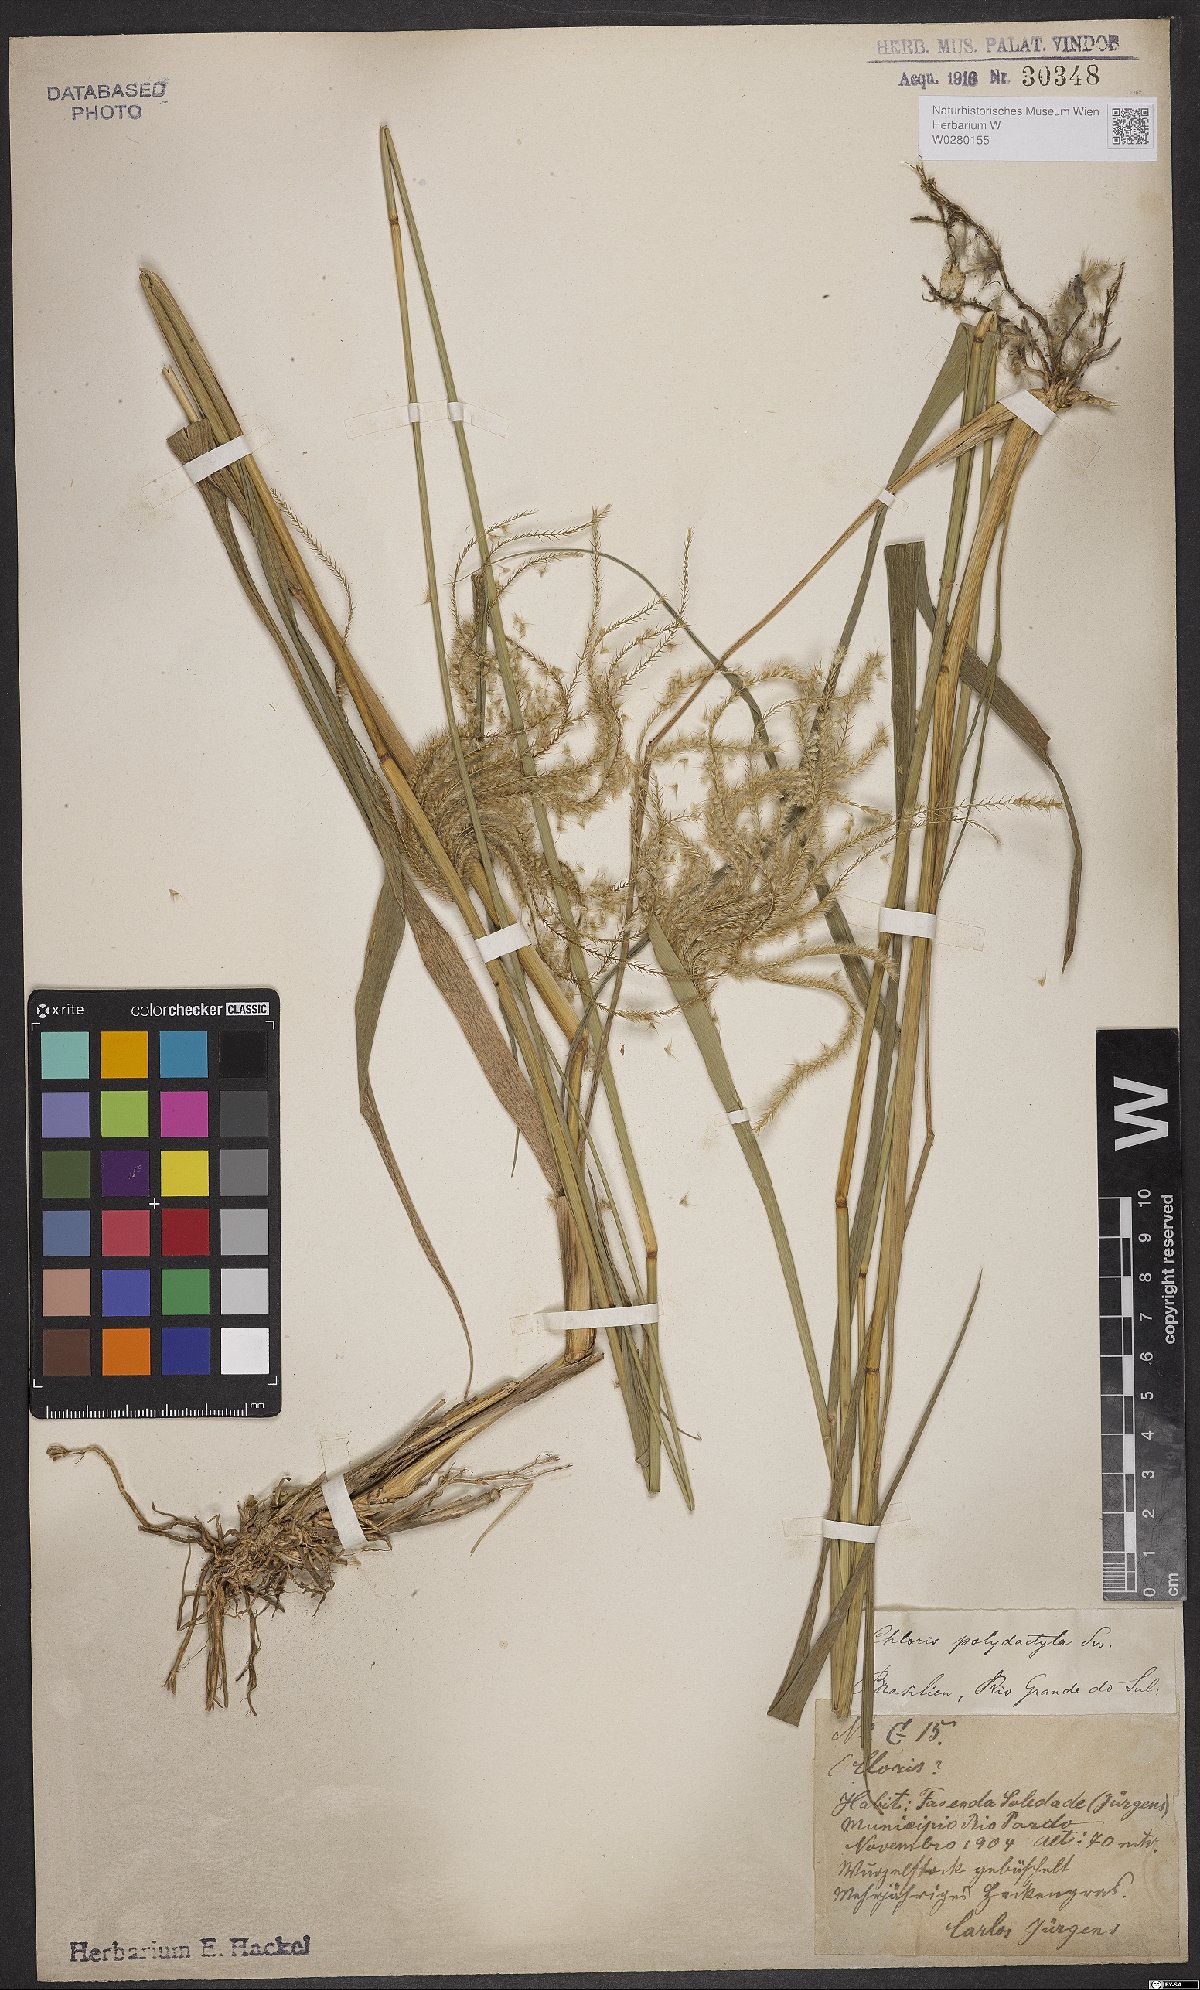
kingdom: Plantae
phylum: Tracheophyta
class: Liliopsida
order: Poales
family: Poaceae
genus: Stapfochloa
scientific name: Stapfochloa elata
